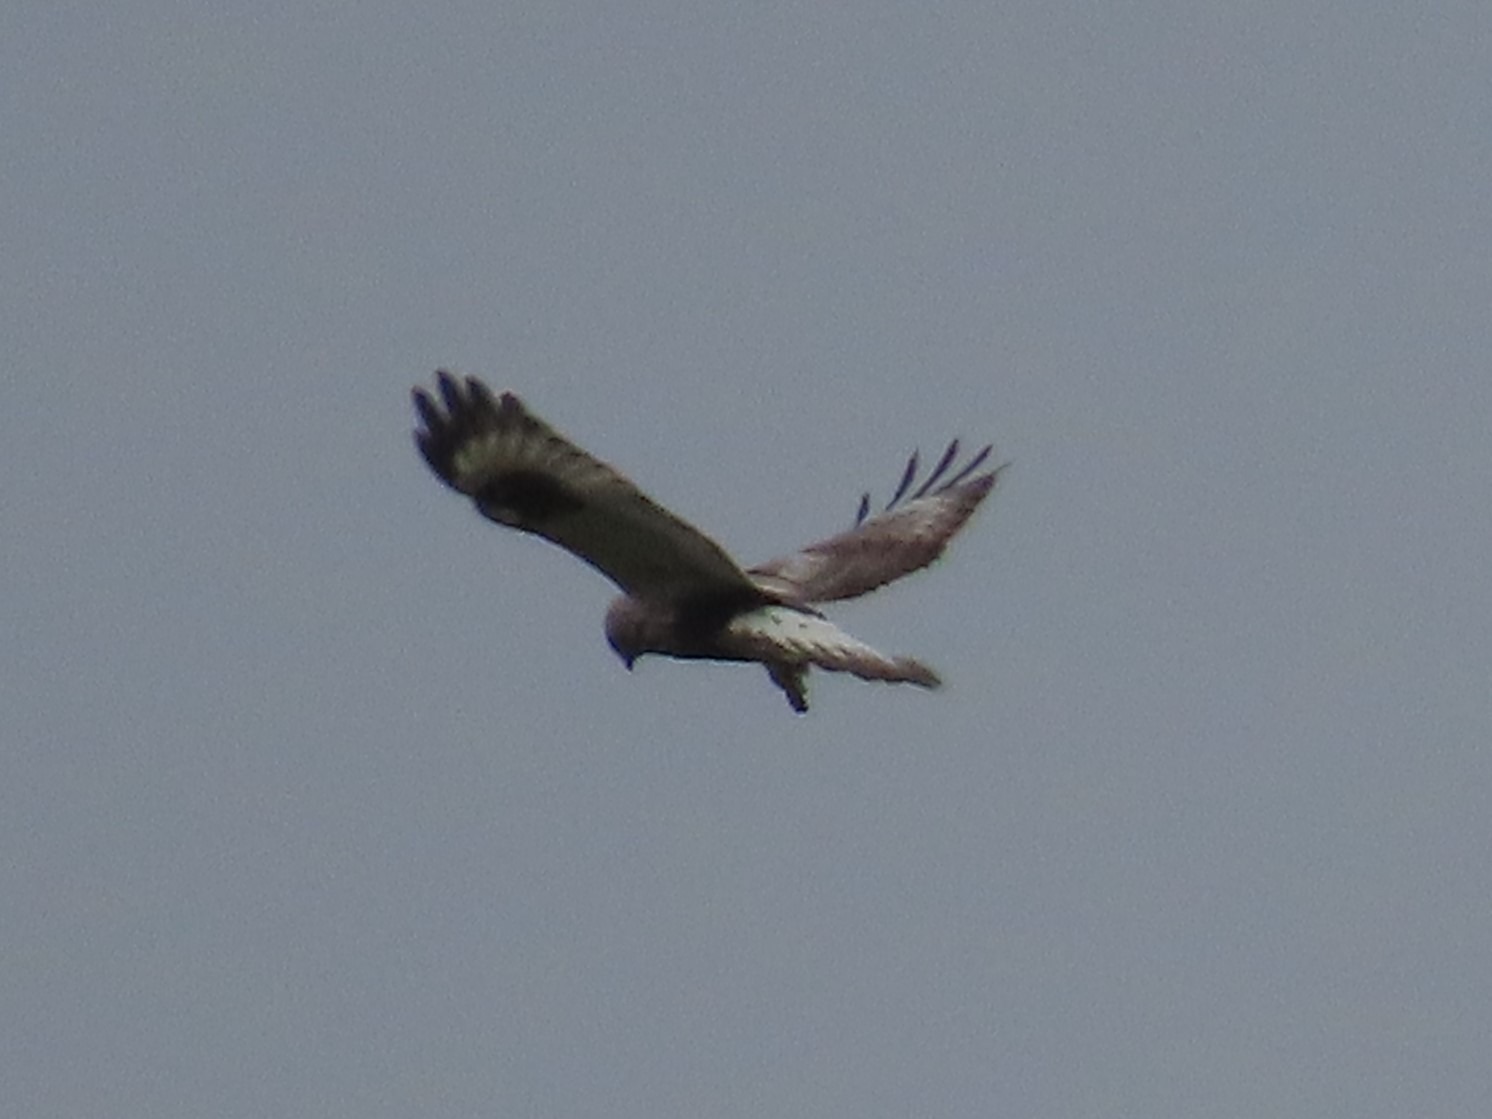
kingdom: Animalia
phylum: Chordata
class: Aves
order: Accipitriformes
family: Accipitridae
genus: Buteo
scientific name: Buteo lagopus
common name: Fjeldvåge
